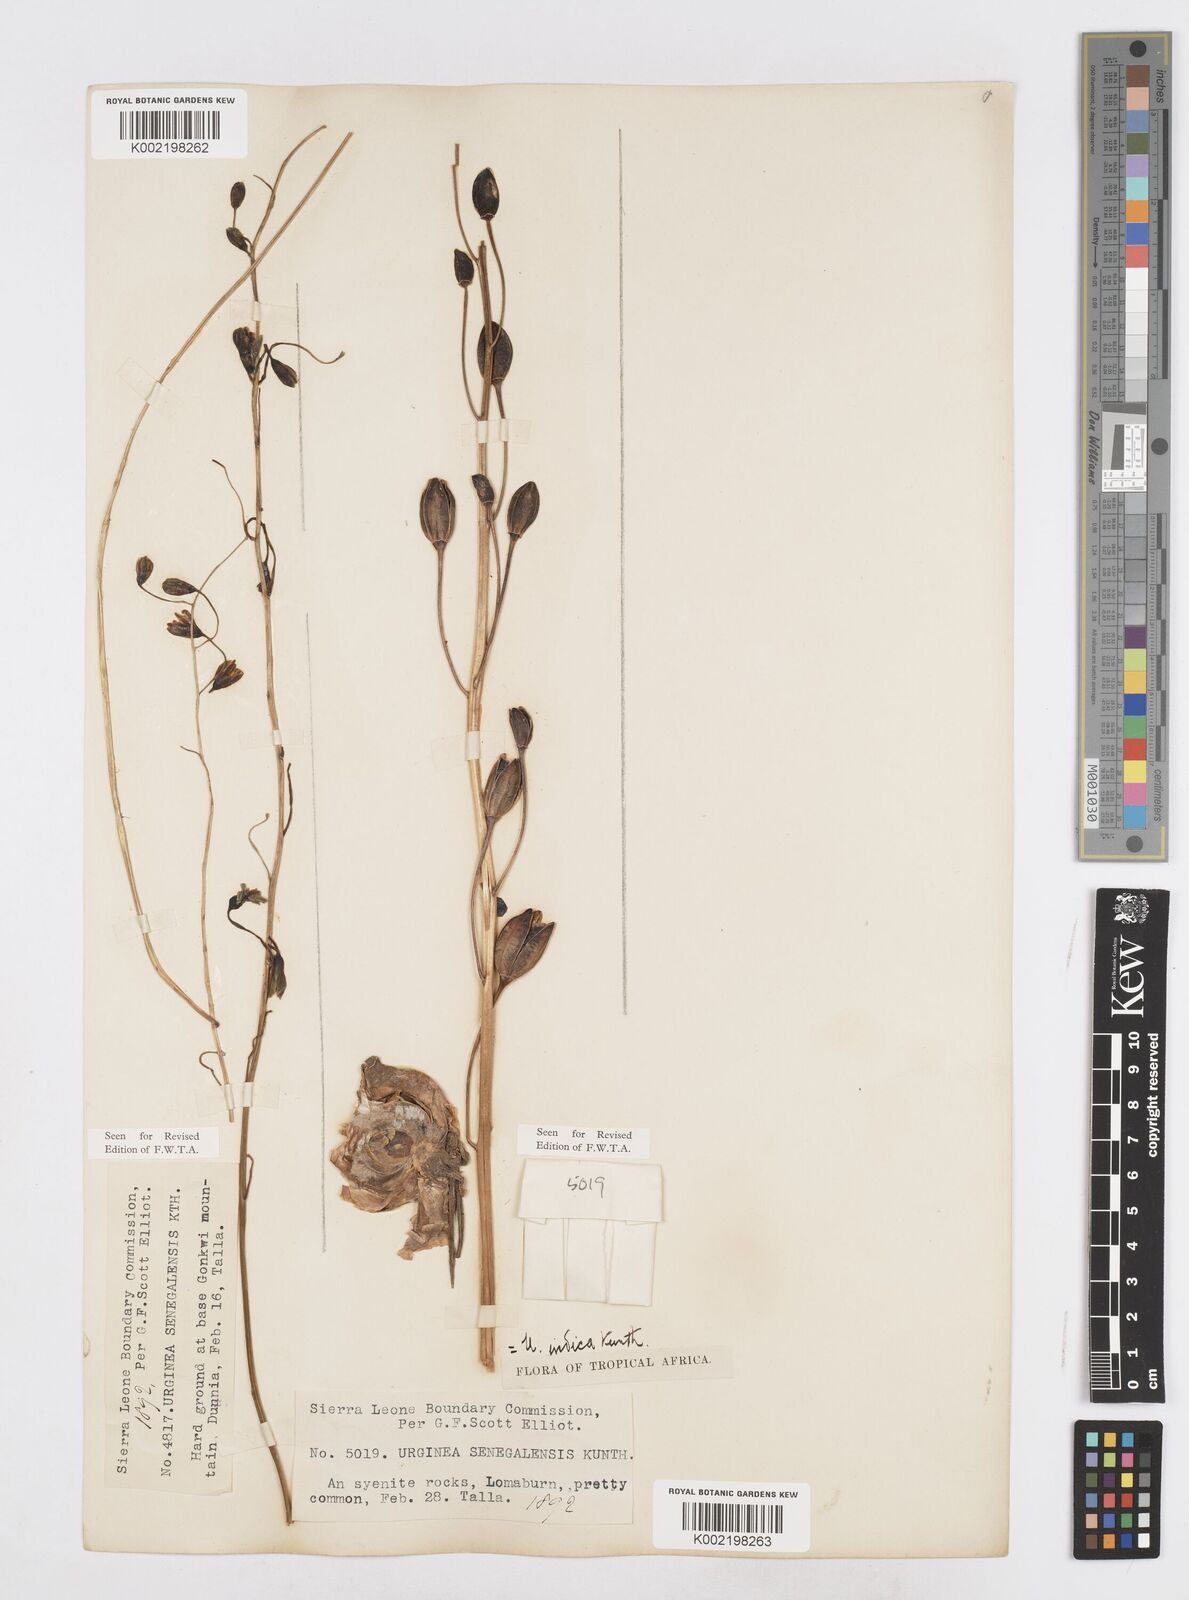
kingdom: Plantae
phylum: Tracheophyta
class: Liliopsida
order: Asparagales
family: Asparagaceae
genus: Drimia
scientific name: Drimia indica
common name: Indian-squill
